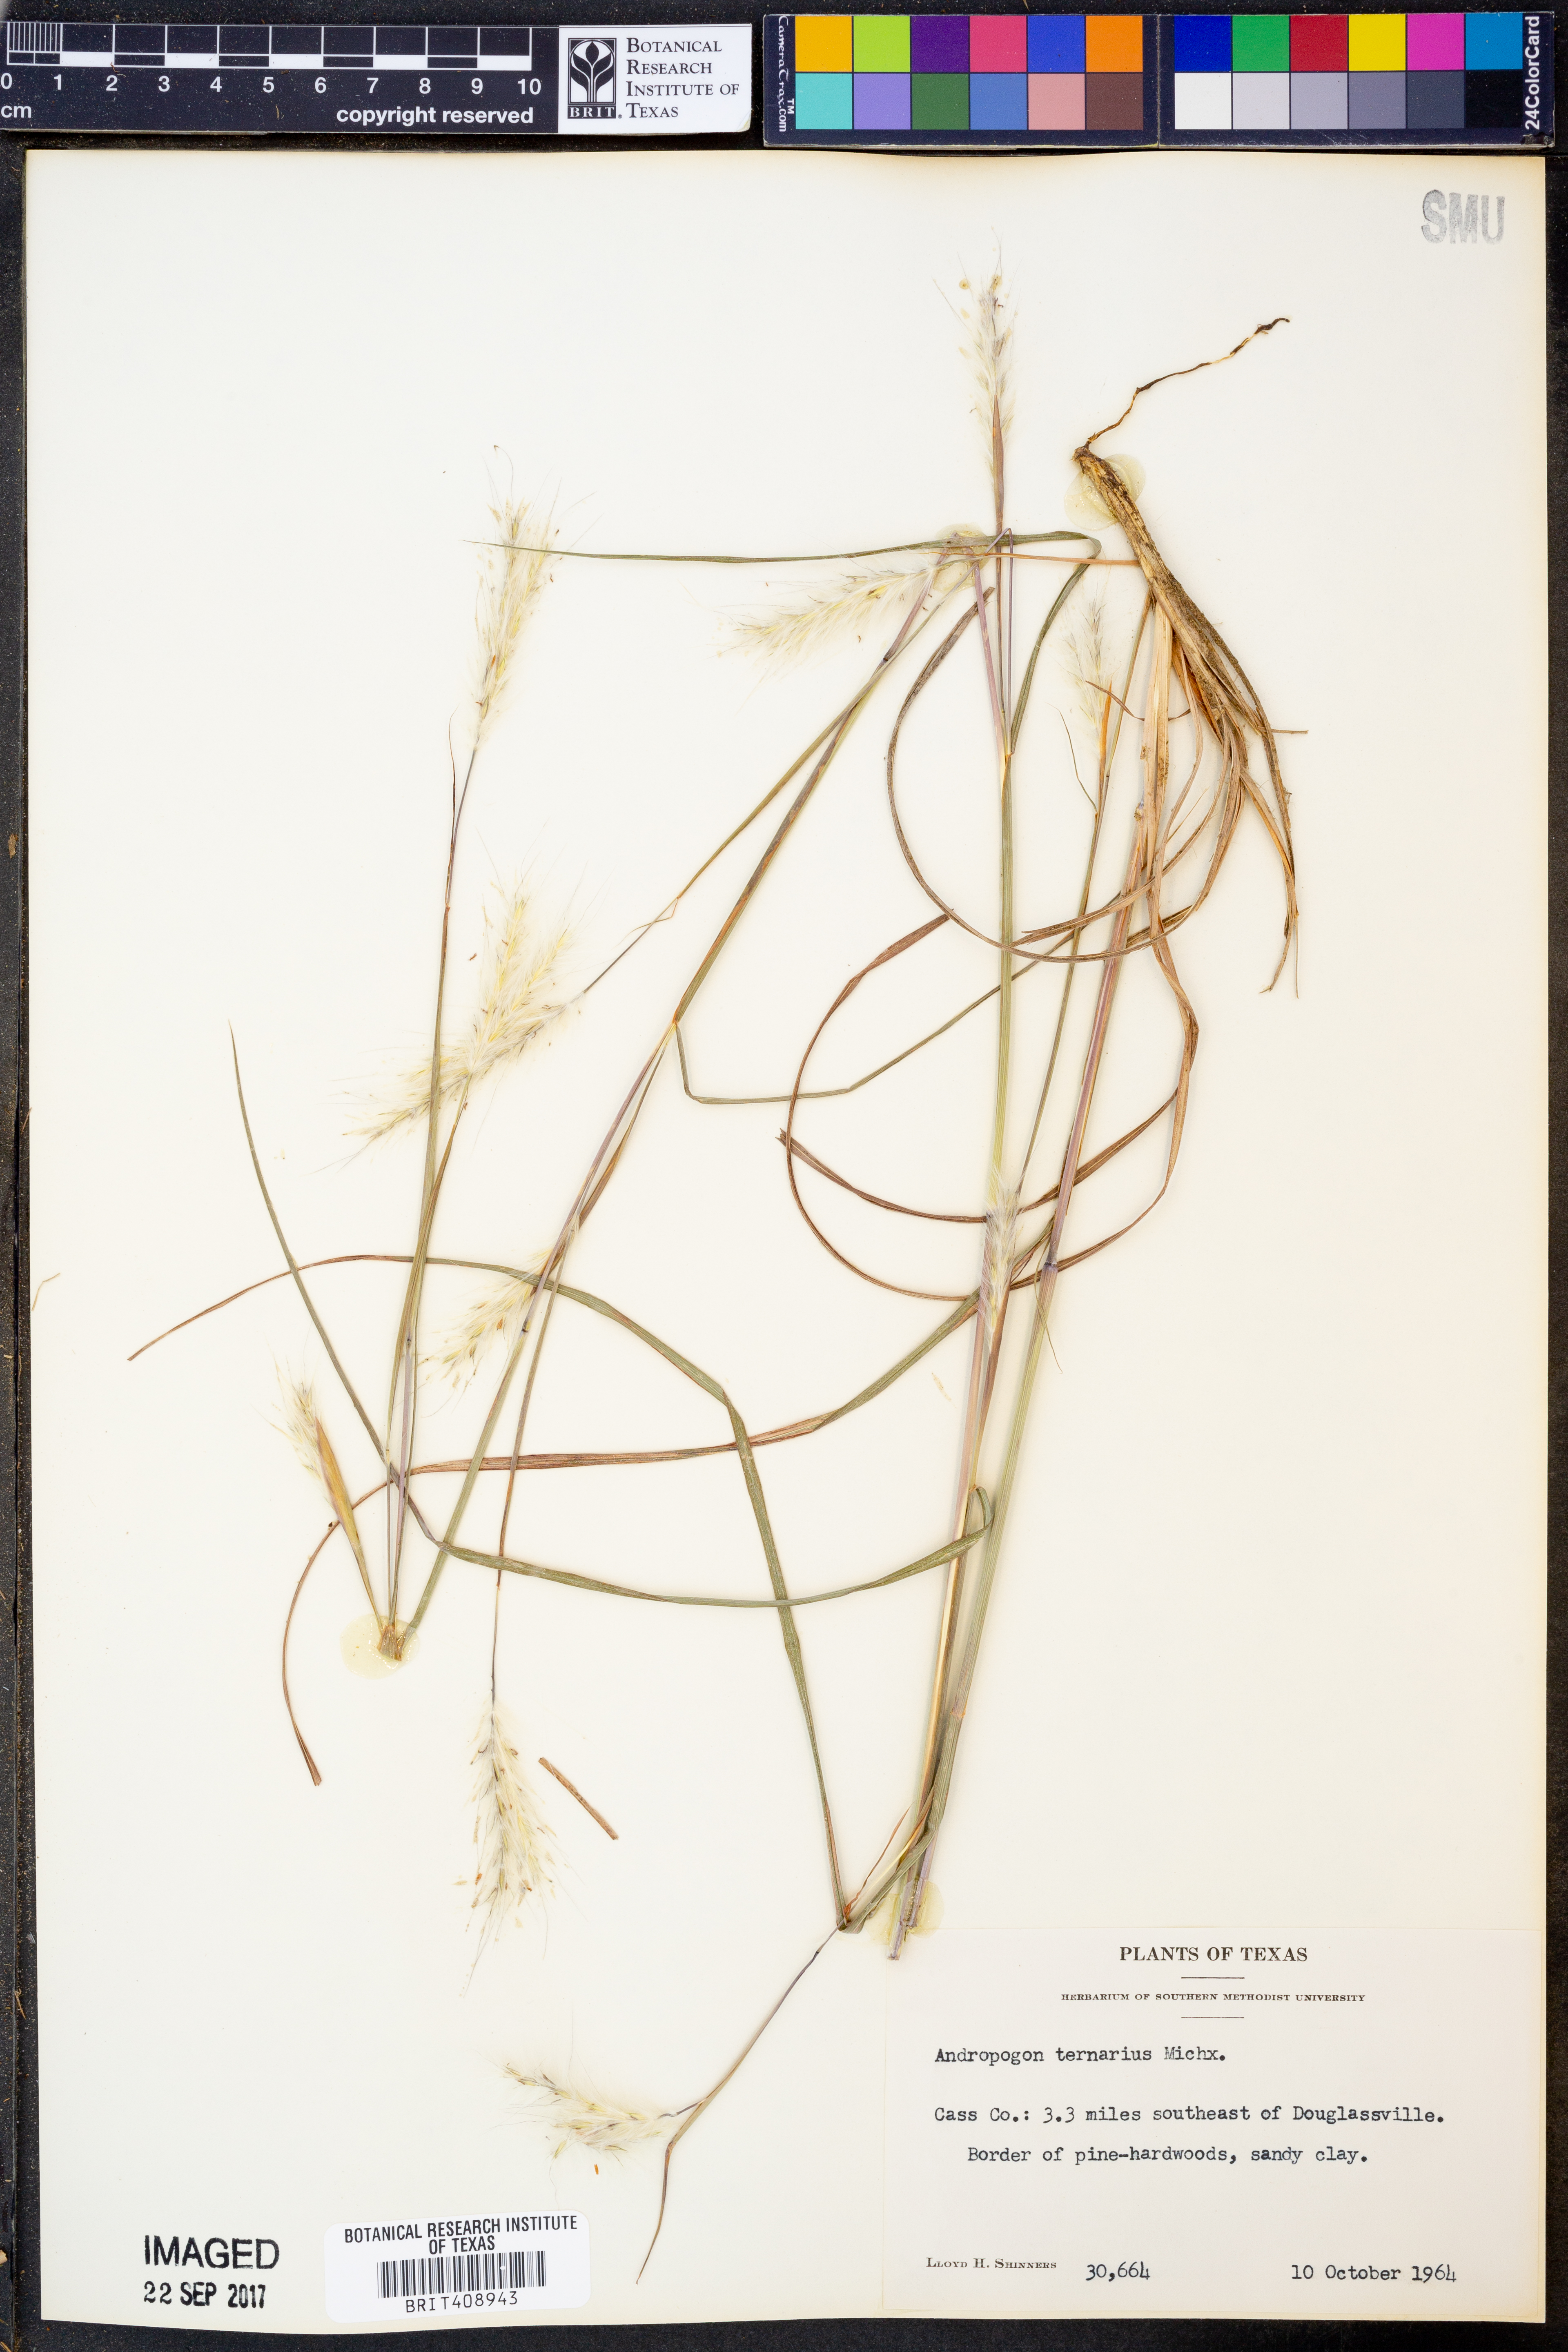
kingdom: Plantae
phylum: Tracheophyta
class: Liliopsida
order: Poales
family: Poaceae
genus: Andropogon
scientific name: Andropogon ternarius
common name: Split bluestem
